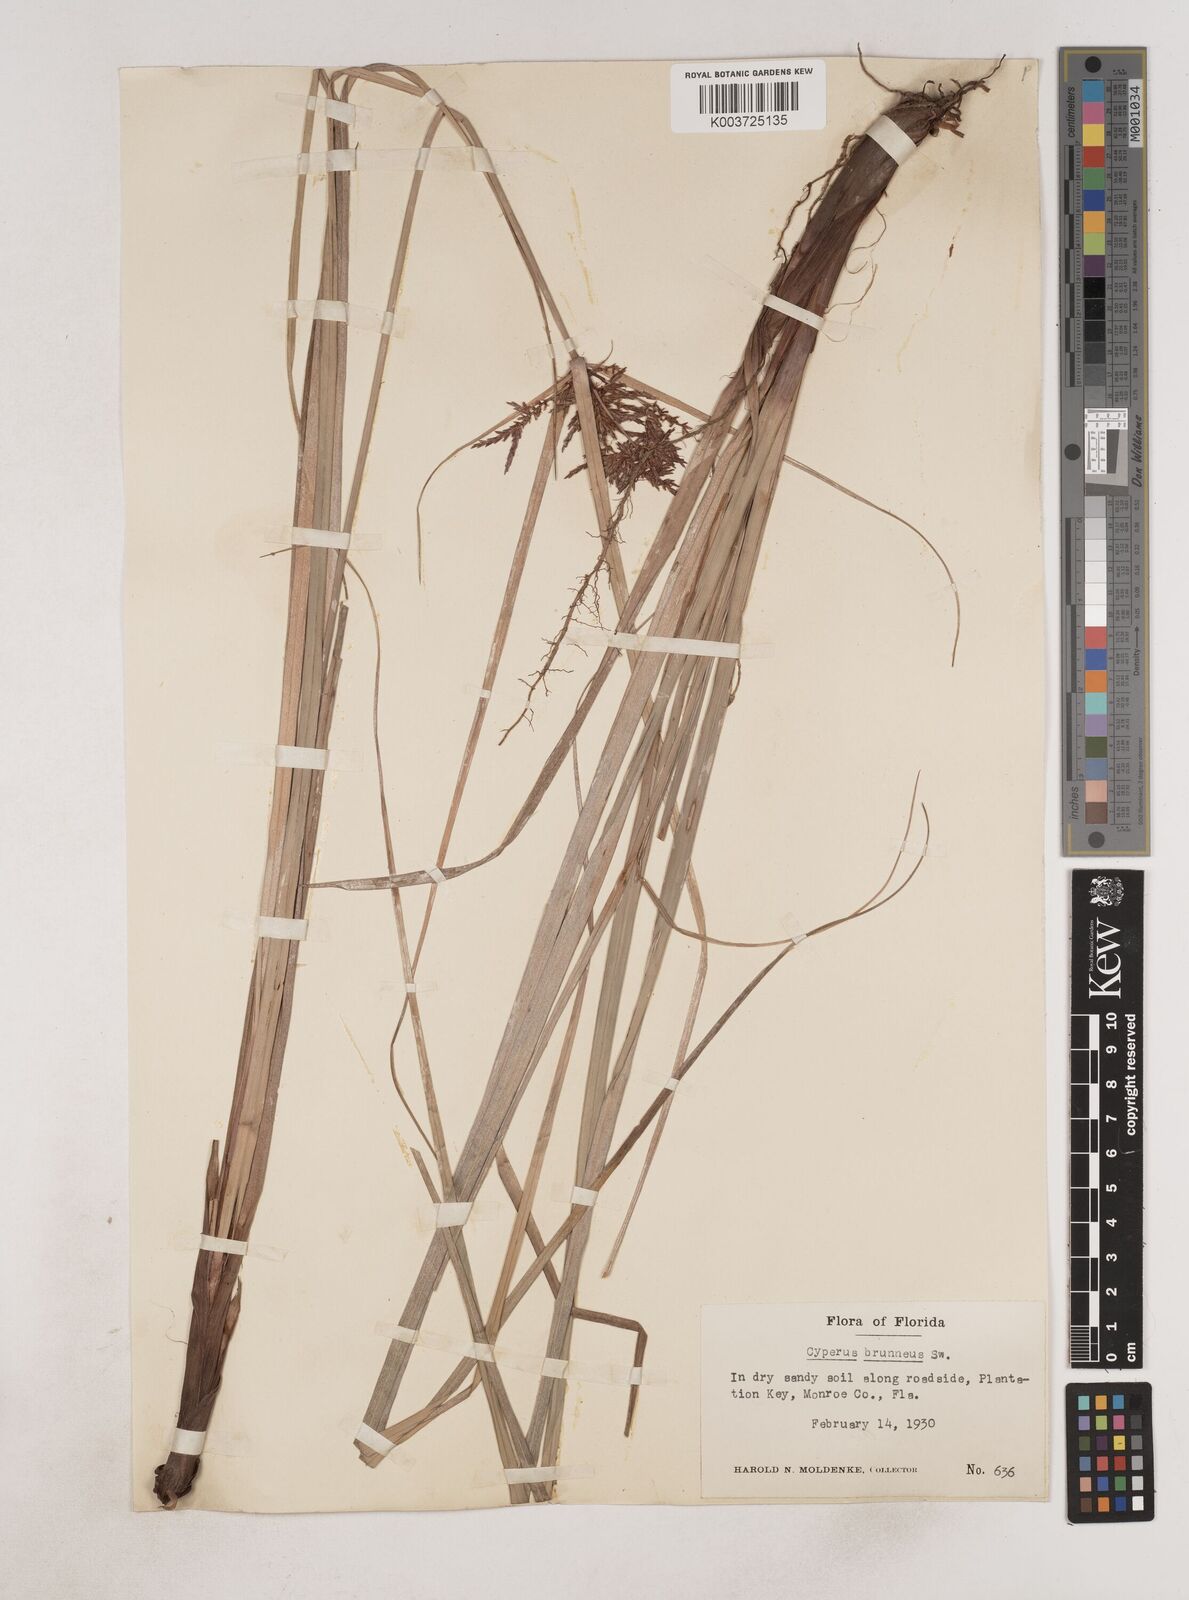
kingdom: Plantae
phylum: Tracheophyta
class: Liliopsida
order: Poales
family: Cyperaceae
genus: Cyperus
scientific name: Cyperus brunneus
